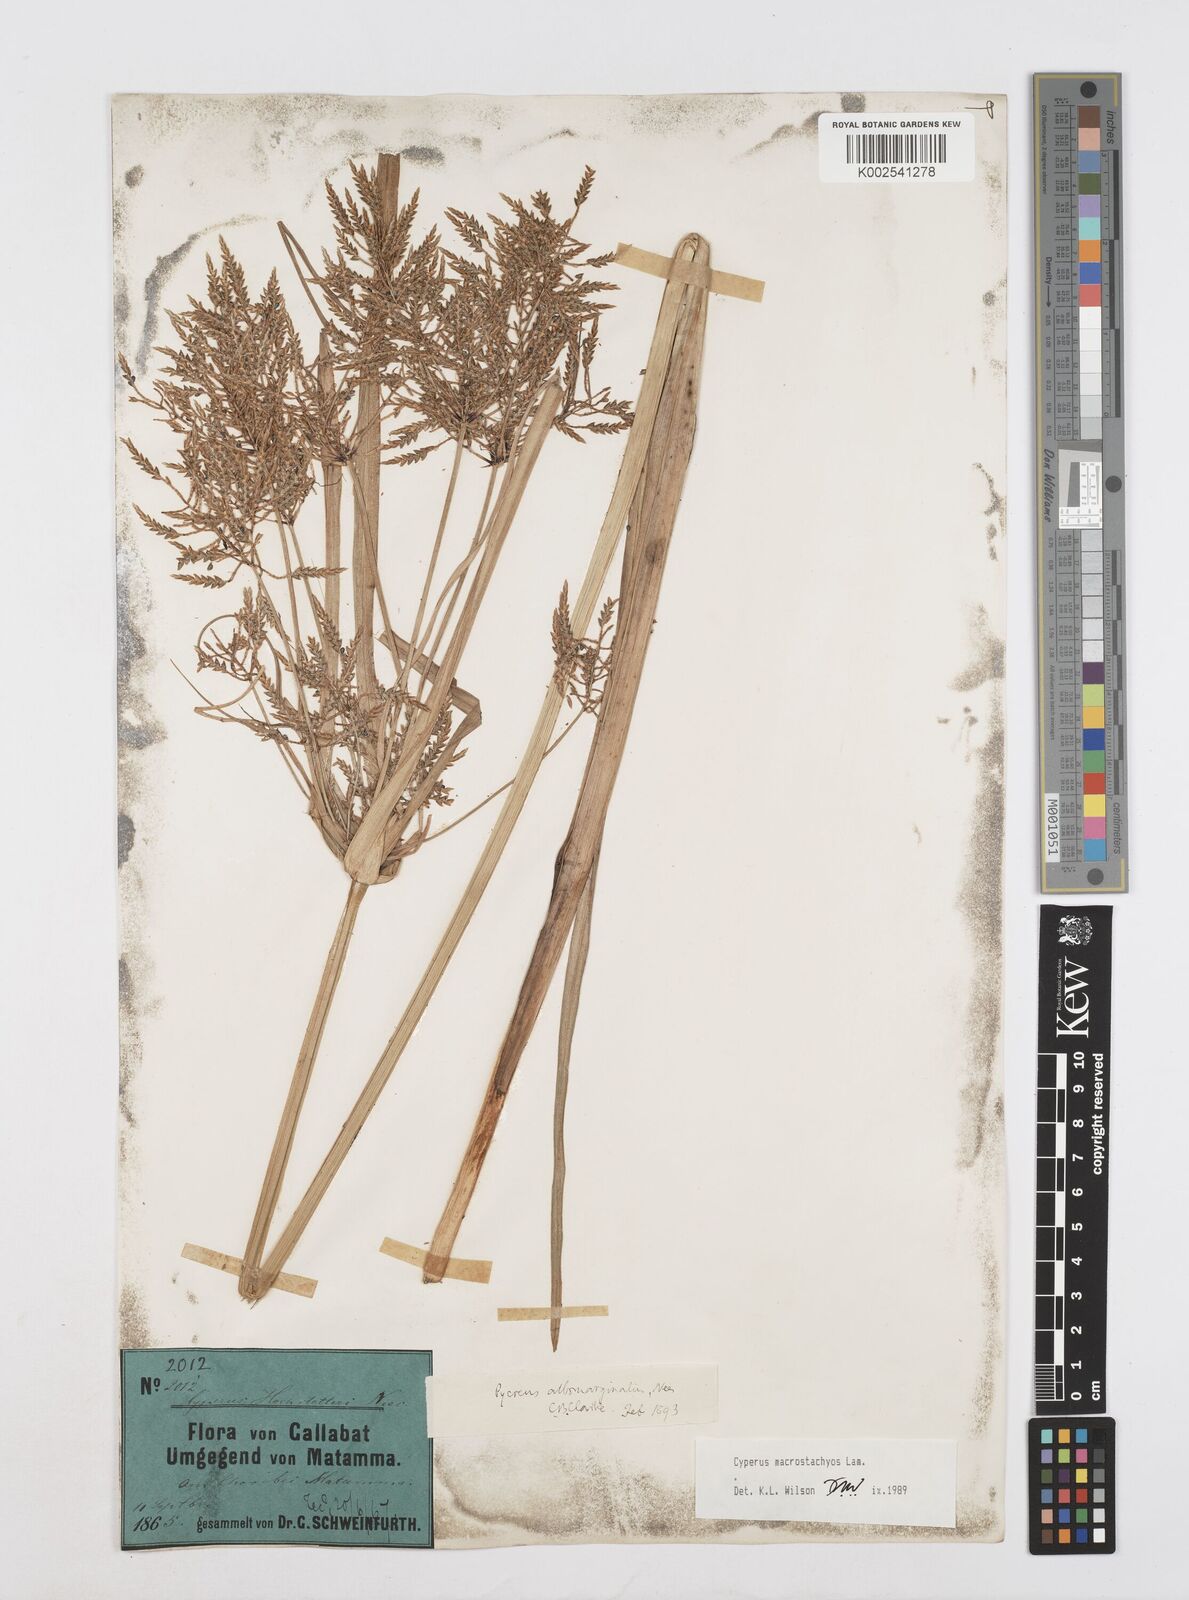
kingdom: Plantae
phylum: Tracheophyta
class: Liliopsida
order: Poales
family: Cyperaceae
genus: Cyperus
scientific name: Cyperus macrostachyos
